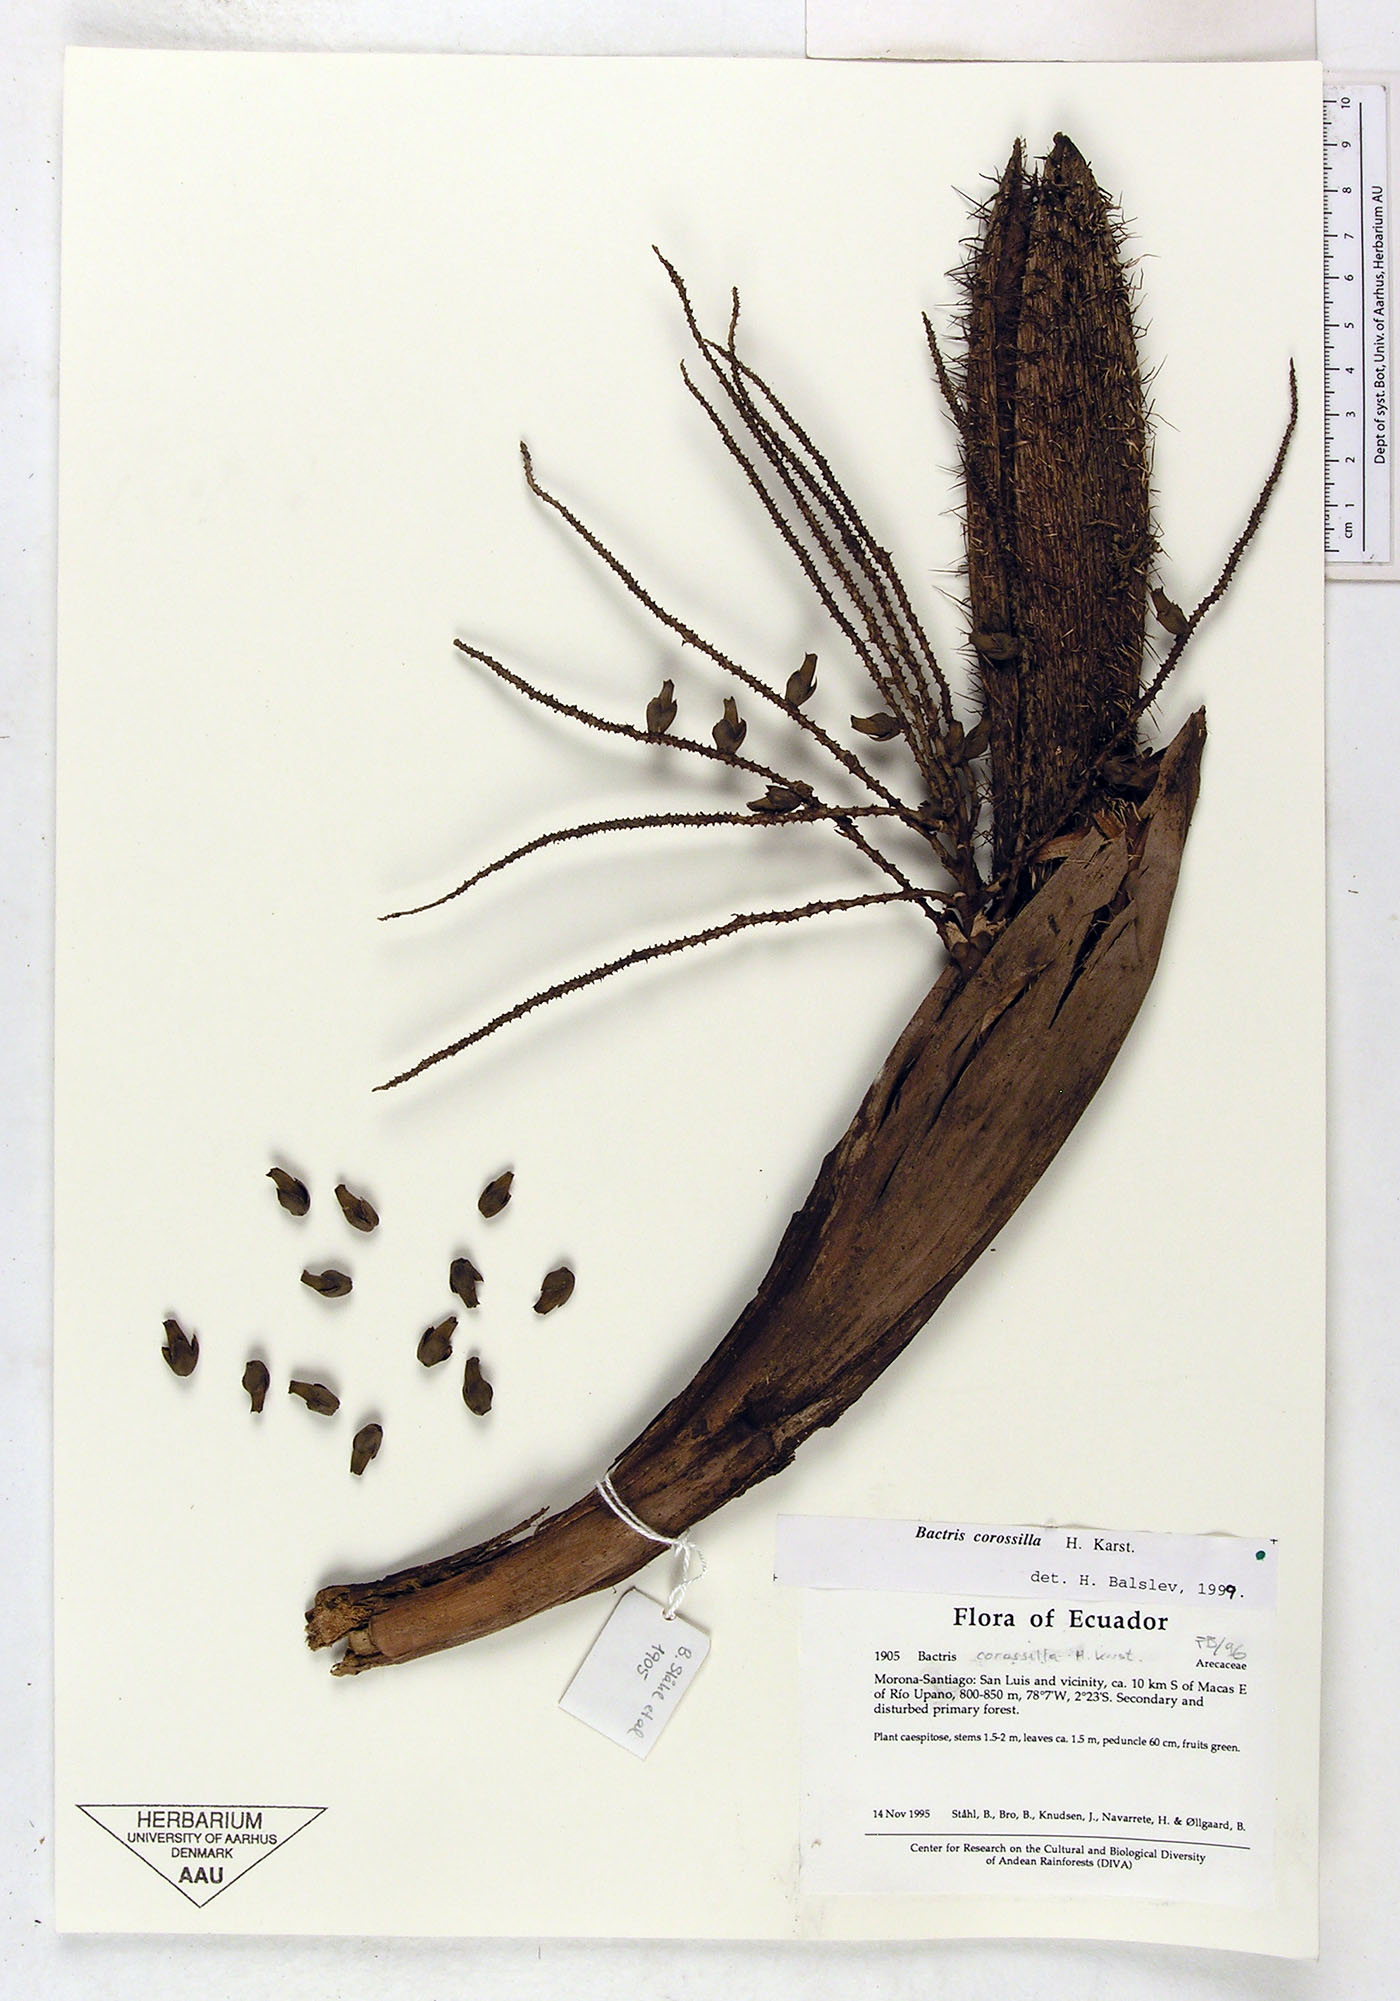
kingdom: Plantae
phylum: Tracheophyta
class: Liliopsida
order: Arecales
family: Arecaceae
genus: Bactris
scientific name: Bactris corossilla
